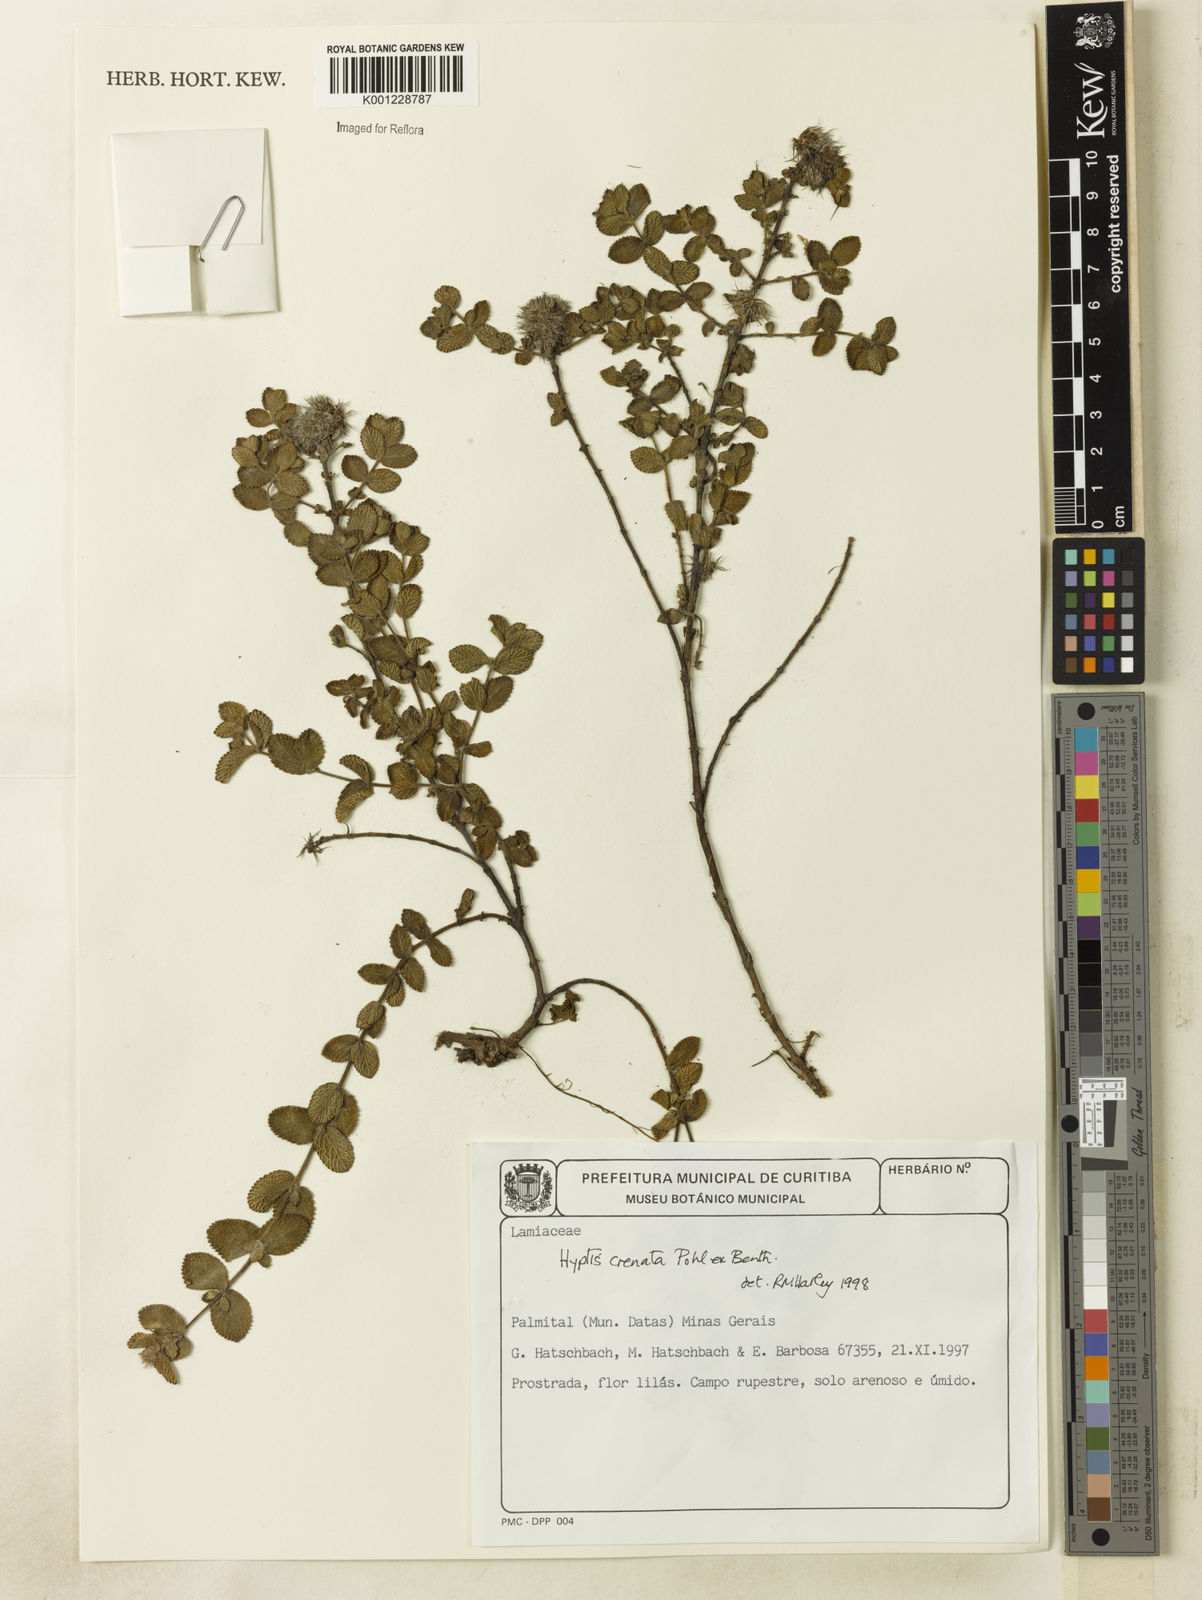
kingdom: Plantae
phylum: Tracheophyta
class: Magnoliopsida
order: Lamiales
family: Lamiaceae
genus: Hyptis
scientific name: Hyptis crenata
